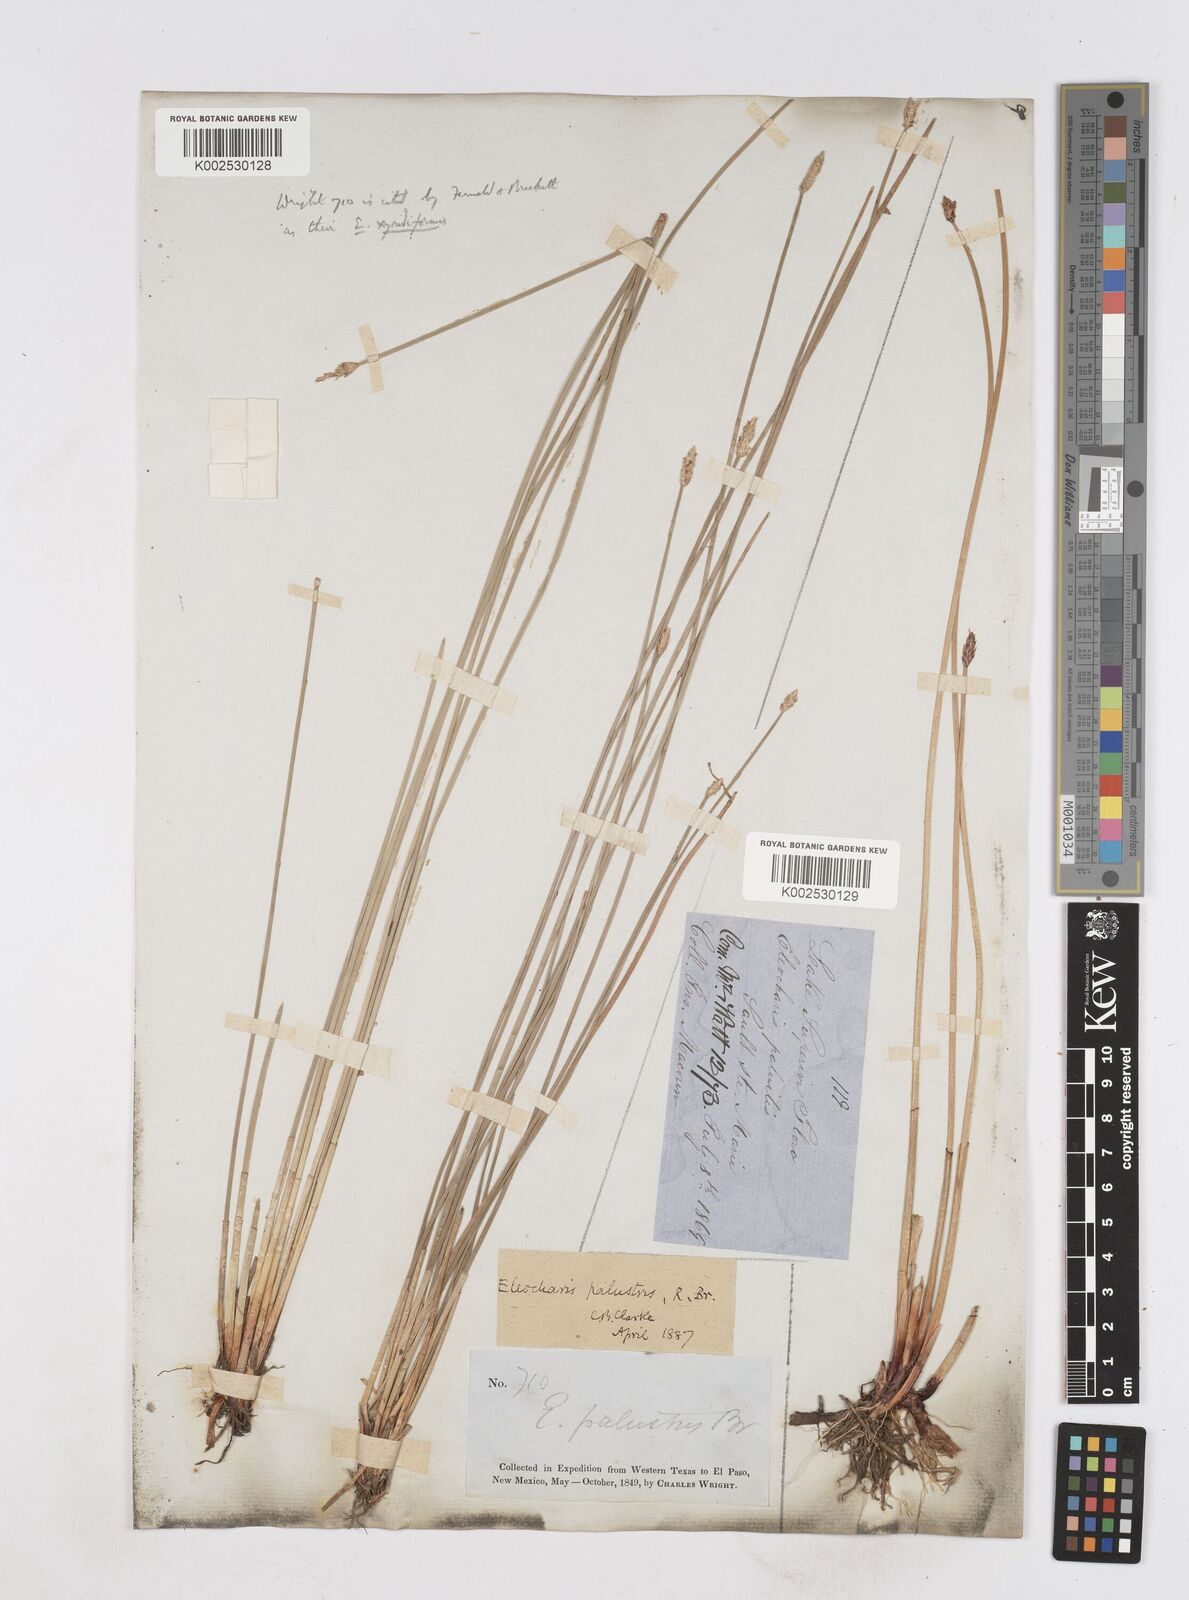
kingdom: Plantae
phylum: Tracheophyta
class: Liliopsida
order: Poales
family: Cyperaceae
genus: Eleocharis
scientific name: Eleocharis macrostachya
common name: Pale spikerush
